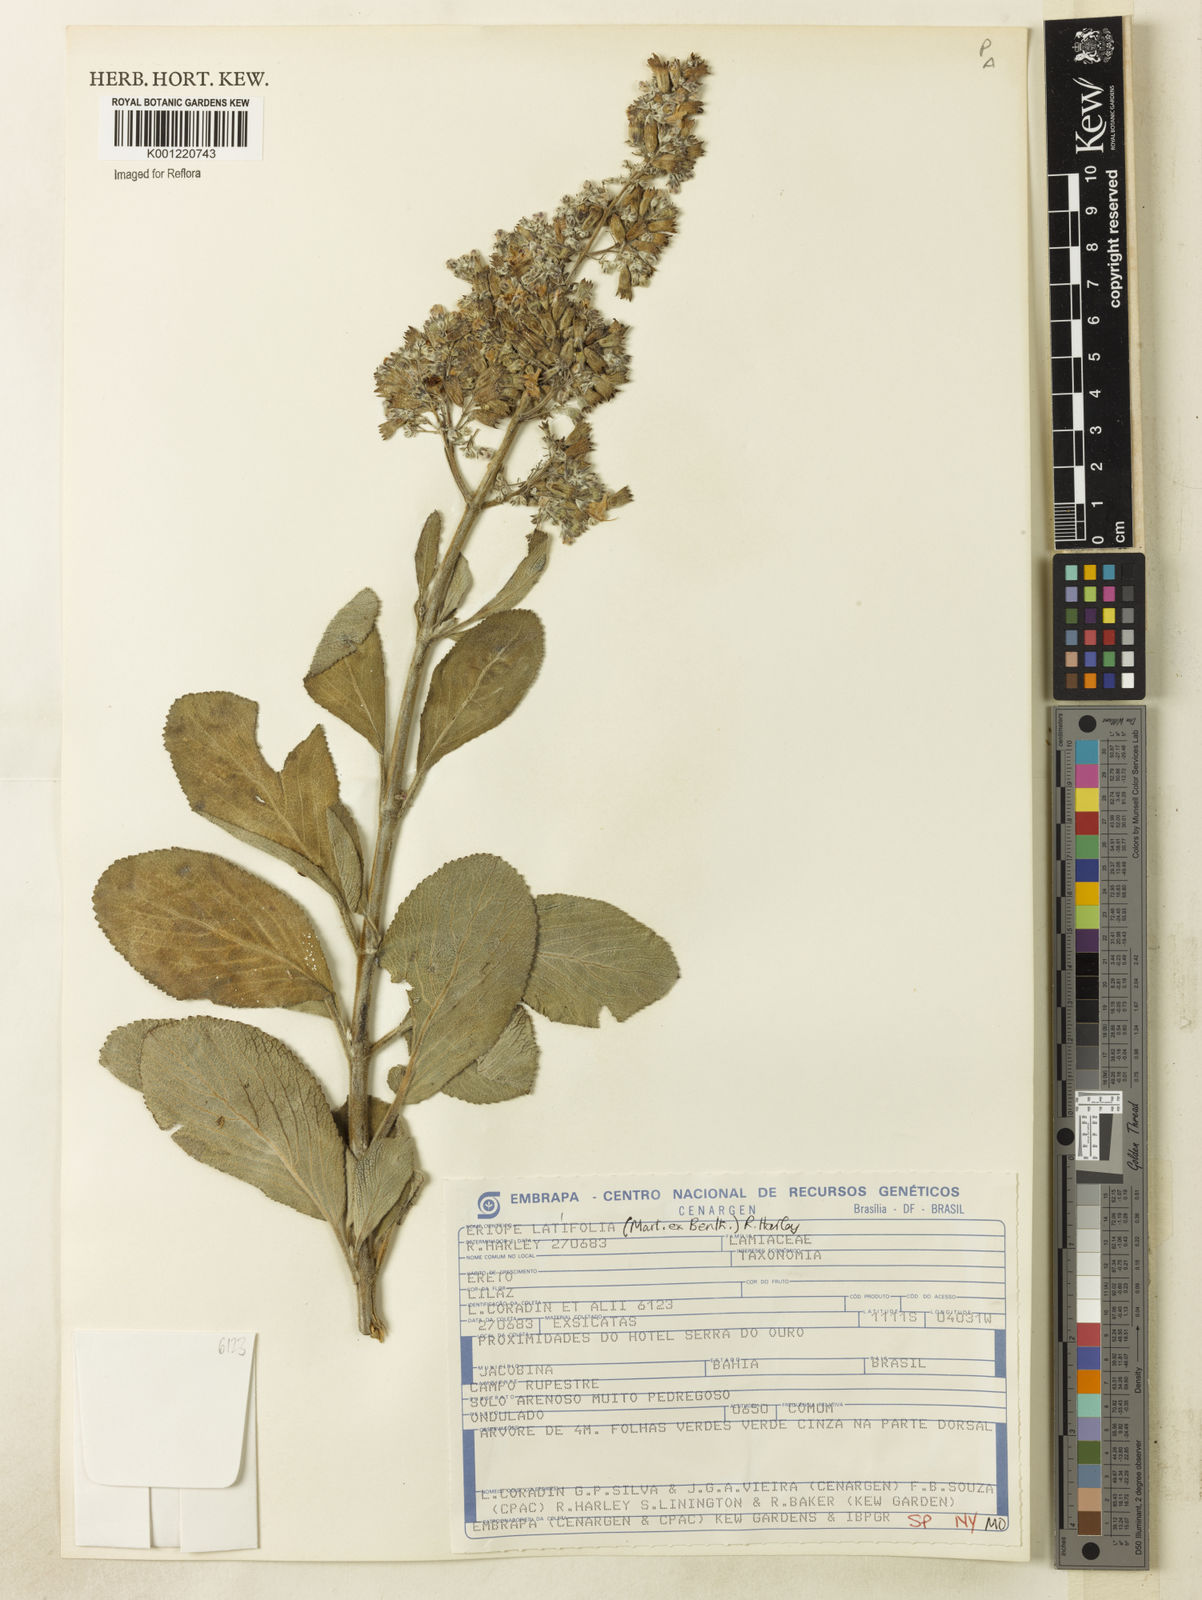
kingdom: Plantae
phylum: Tracheophyta
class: Magnoliopsida
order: Lamiales
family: Lamiaceae
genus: Eriope
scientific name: Eriope latifolia
